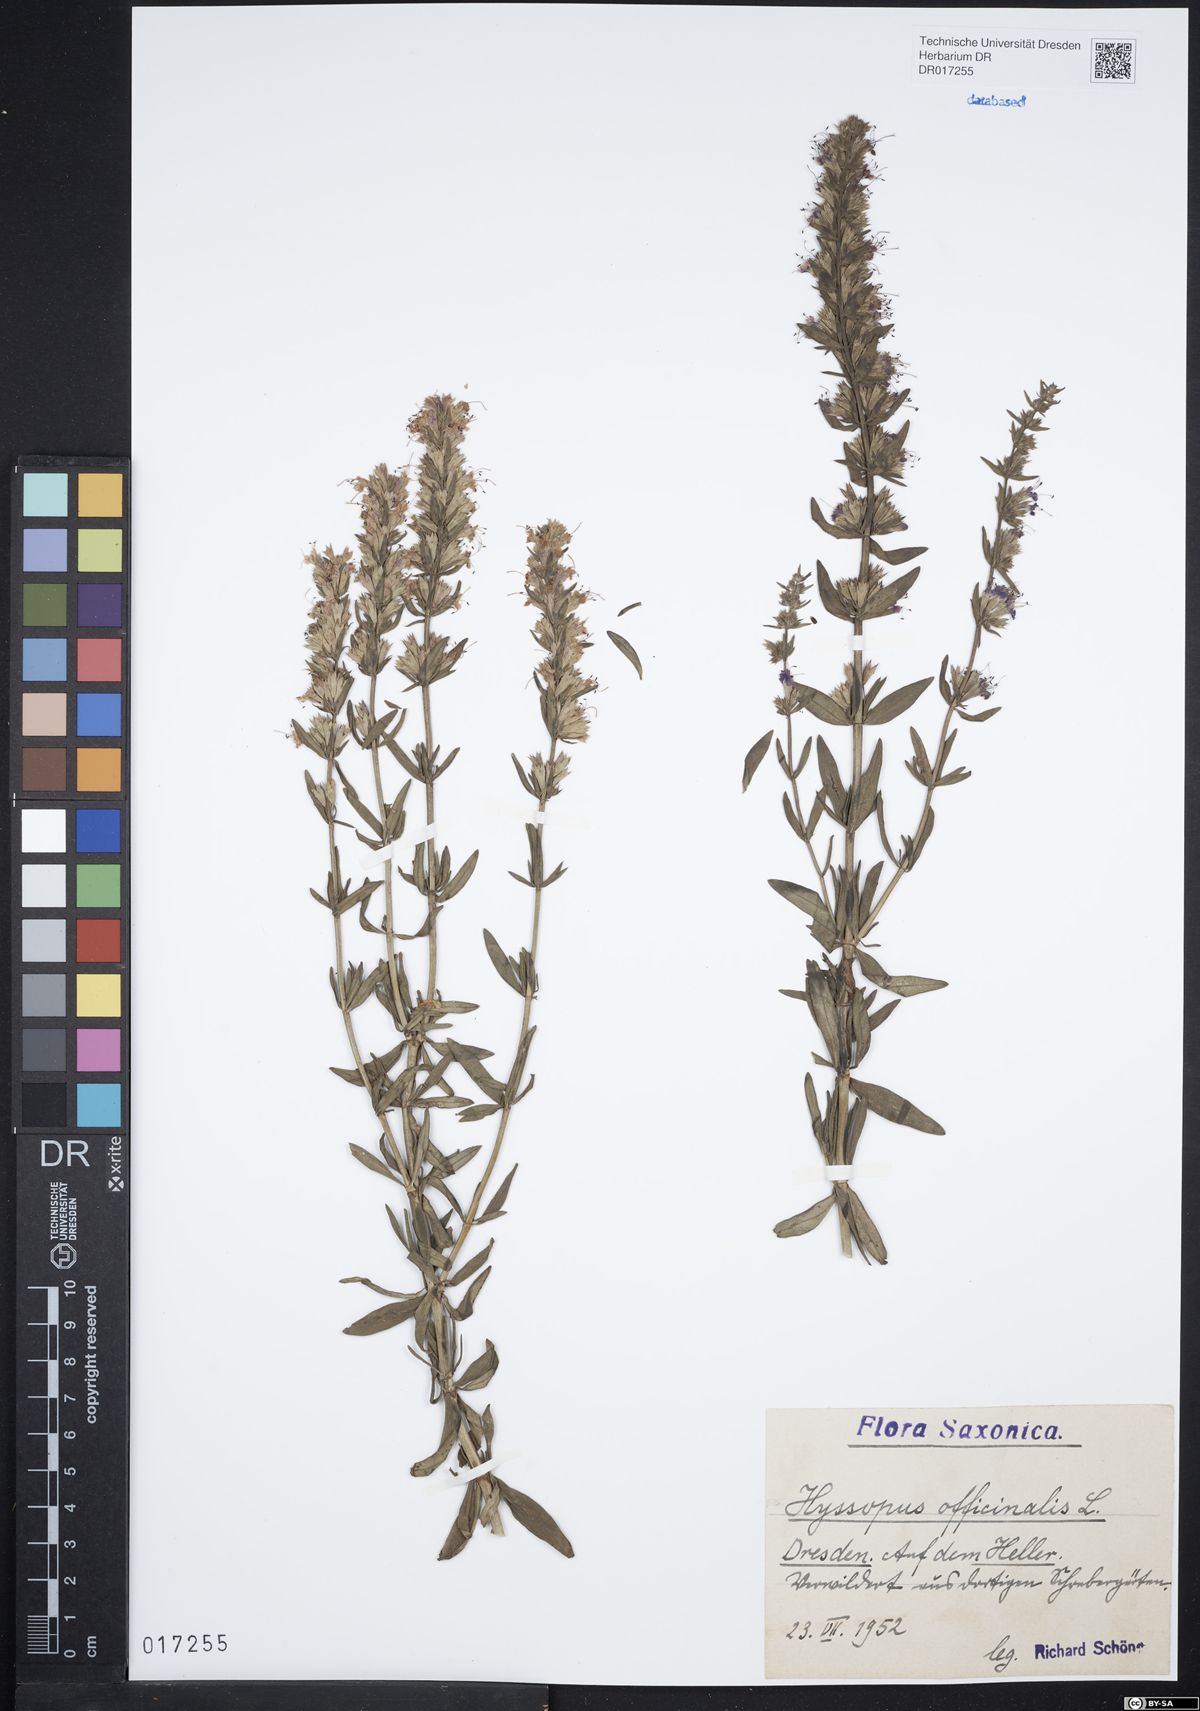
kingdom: Plantae
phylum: Tracheophyta
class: Magnoliopsida
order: Lamiales
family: Lamiaceae
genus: Hyssopus
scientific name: Hyssopus officinalis
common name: Hyssop
